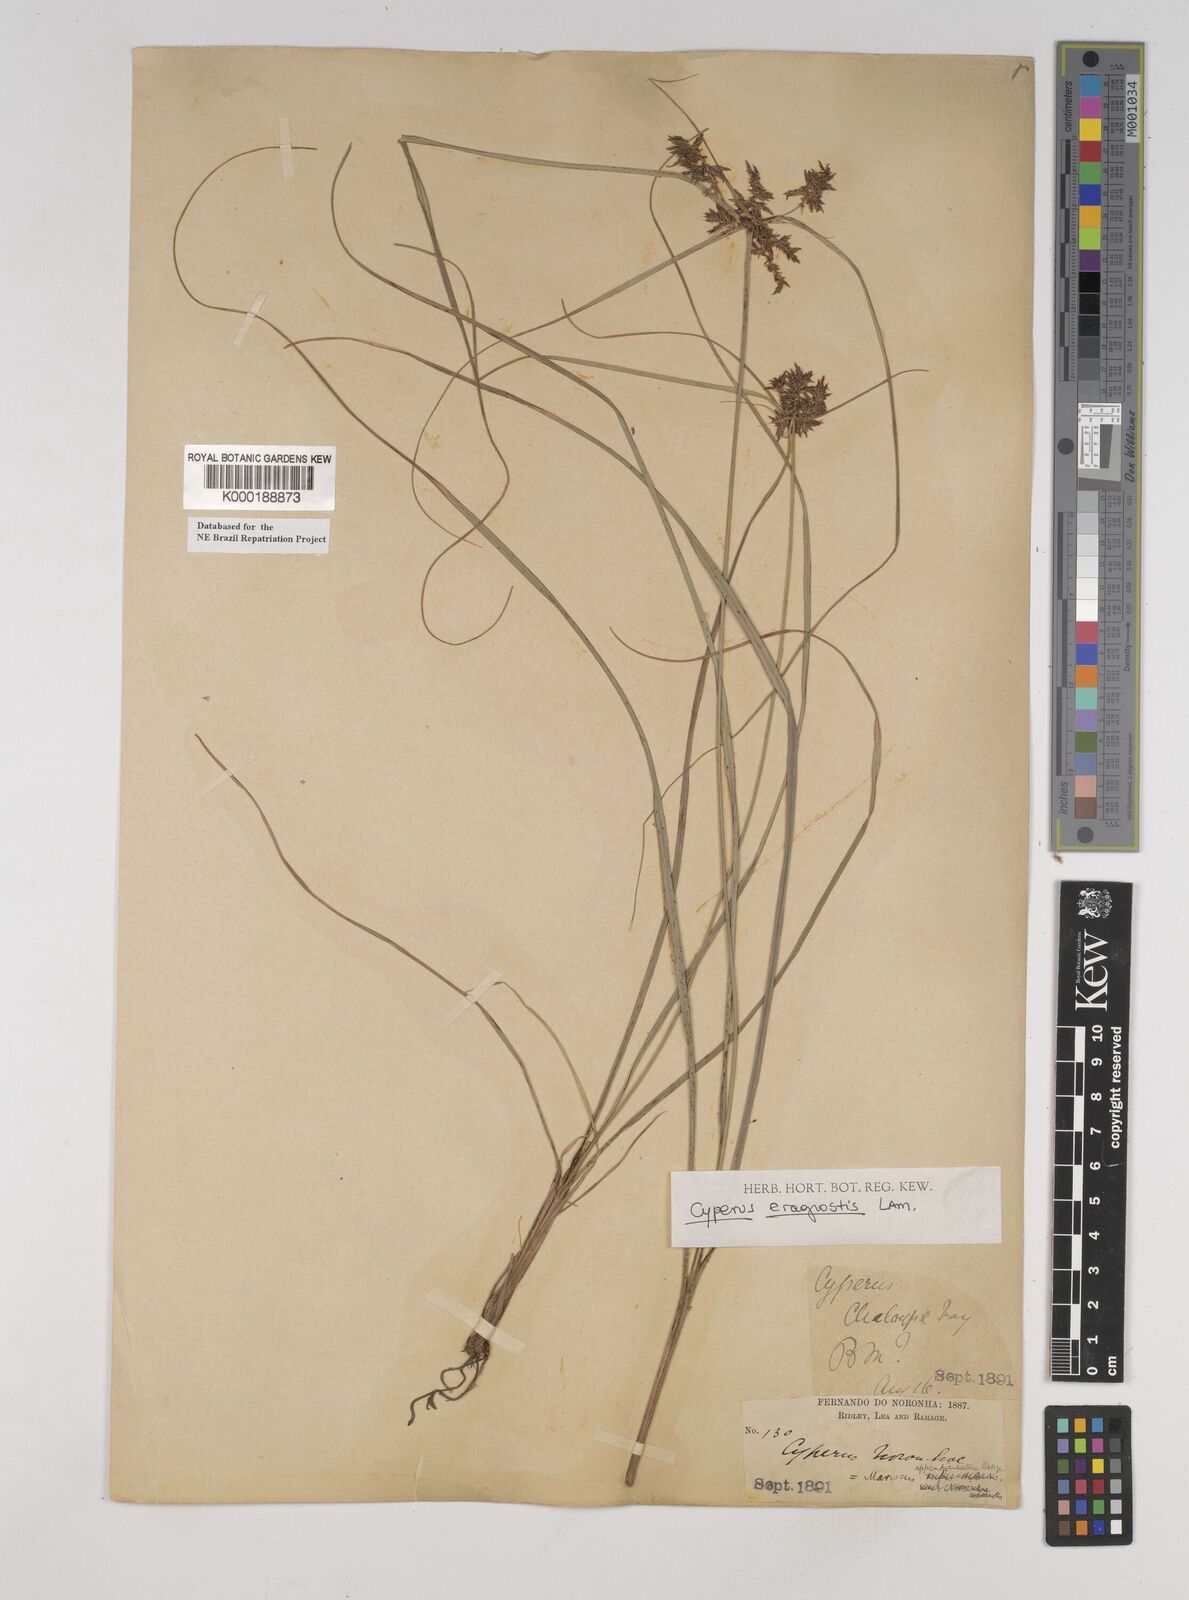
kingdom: Plantae
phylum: Tracheophyta
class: Liliopsida
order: Poales
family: Cyperaceae
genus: Cyperus
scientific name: Cyperus eragrostis
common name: Tall flatsedge
